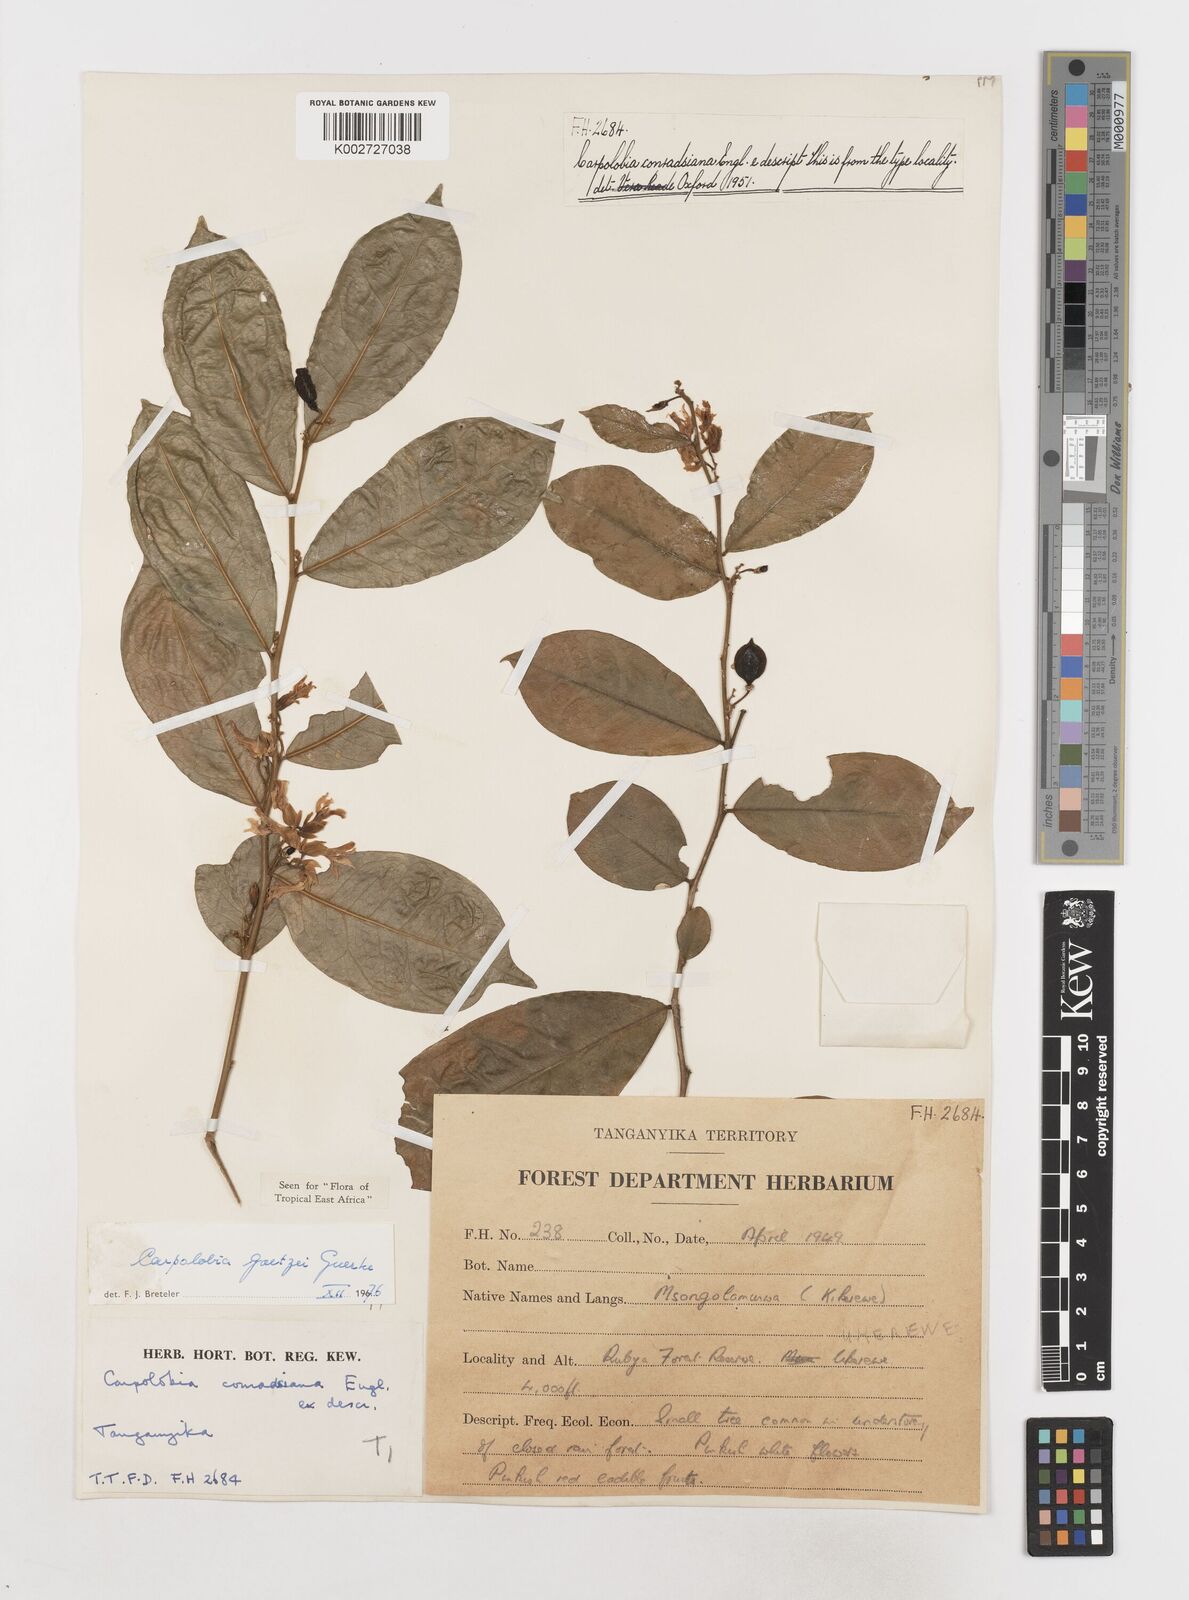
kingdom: Plantae
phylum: Tracheophyta
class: Magnoliopsida
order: Fabales
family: Polygalaceae
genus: Carpolobia
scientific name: Carpolobia goetzei
